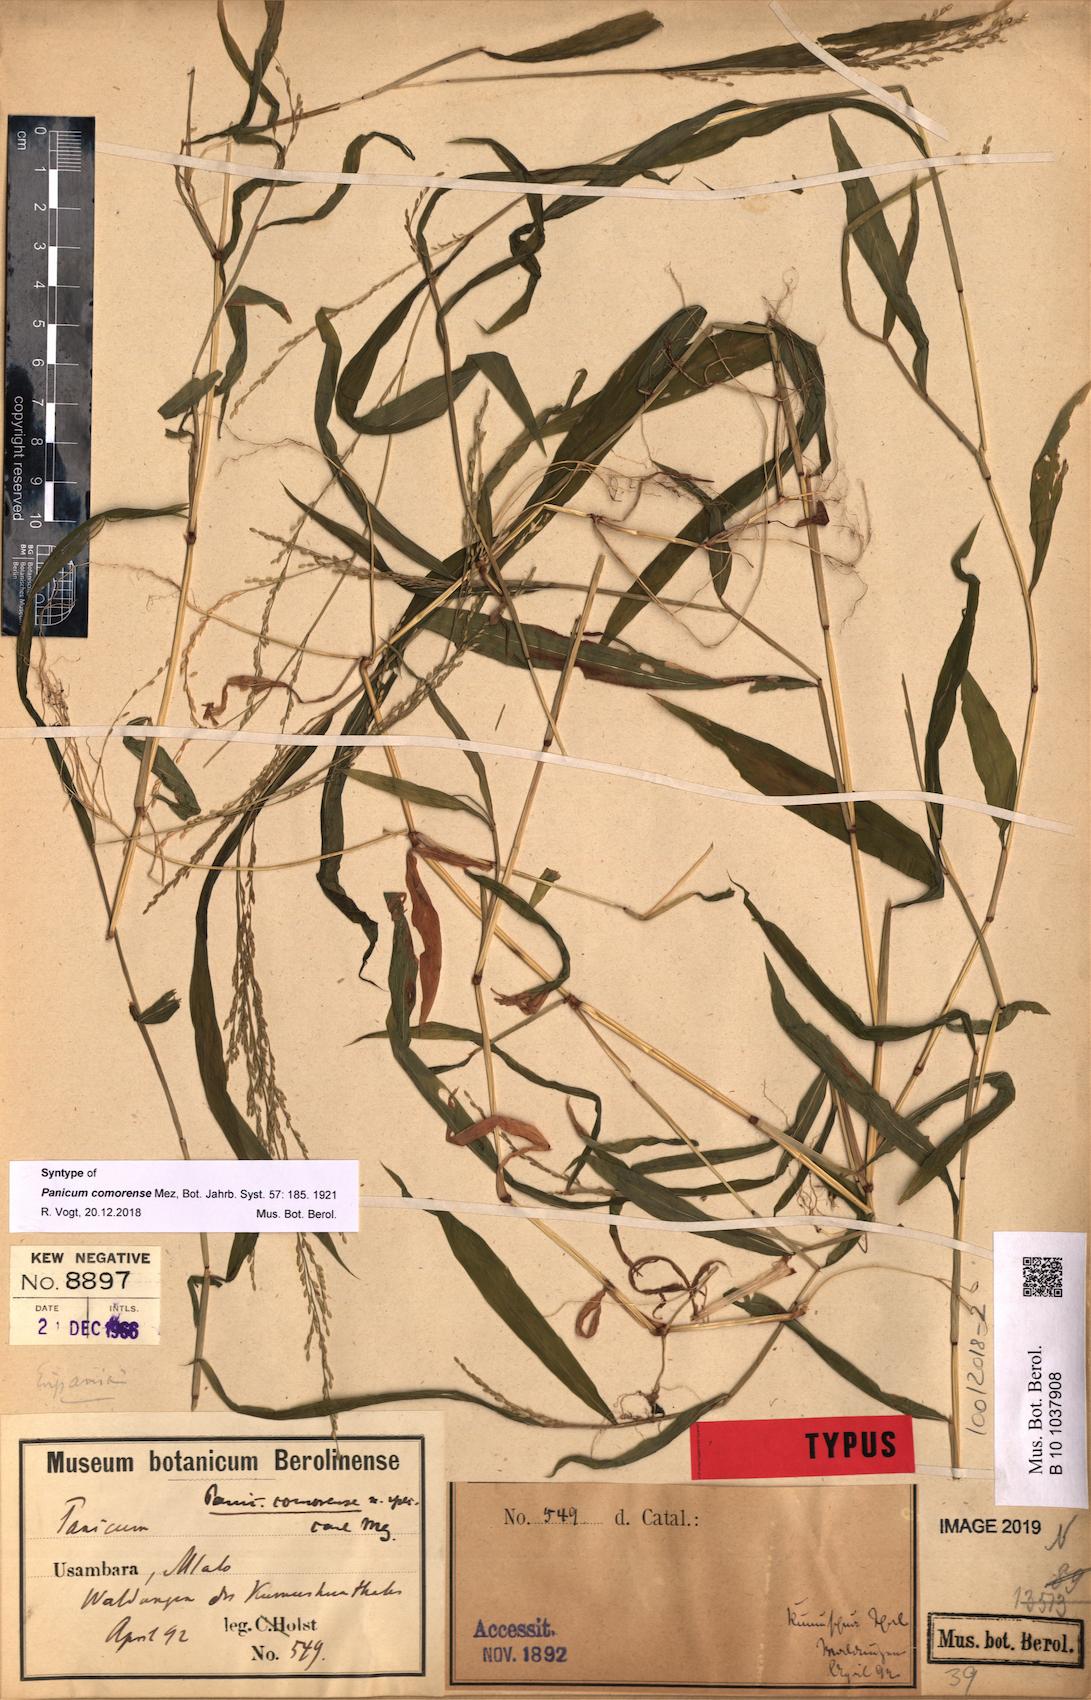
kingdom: Plantae
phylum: Tracheophyta
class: Liliopsida
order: Poales
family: Poaceae
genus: Panicum
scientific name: Panicum comorense
